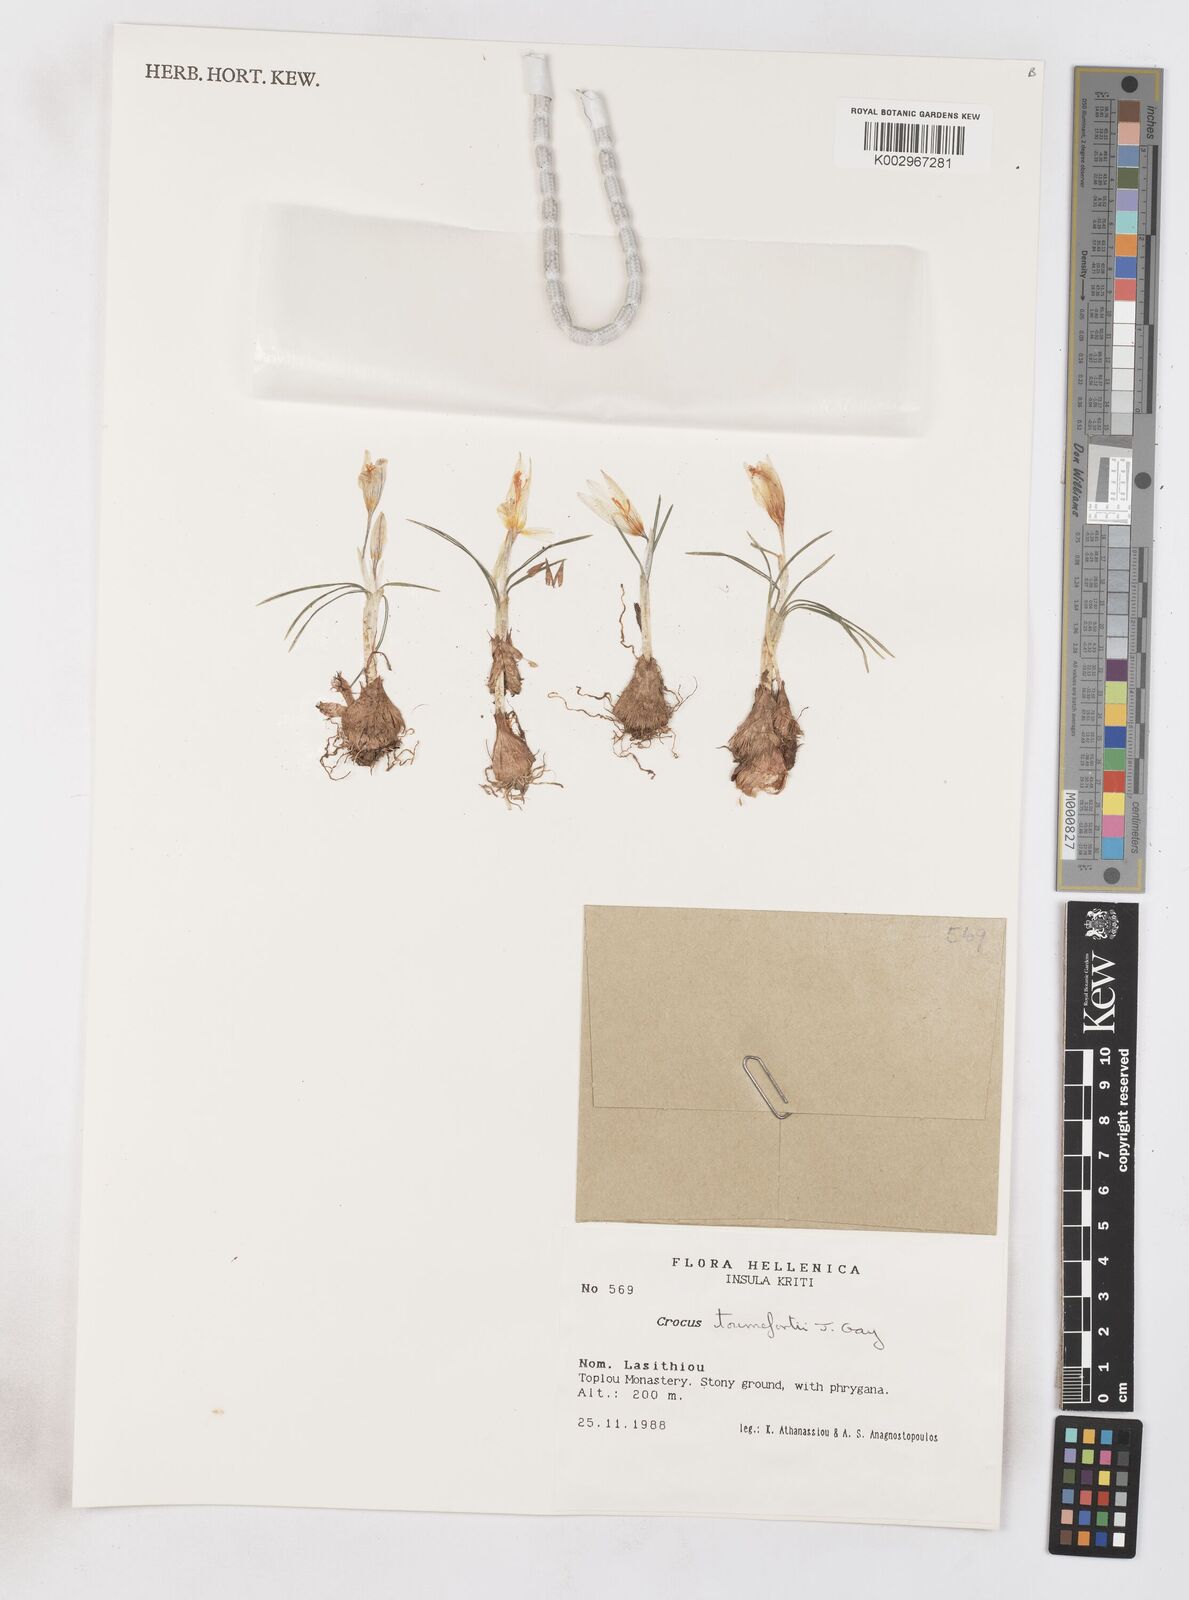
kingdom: Plantae
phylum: Tracheophyta
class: Liliopsida
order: Asparagales
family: Iridaceae
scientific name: Iridaceae
